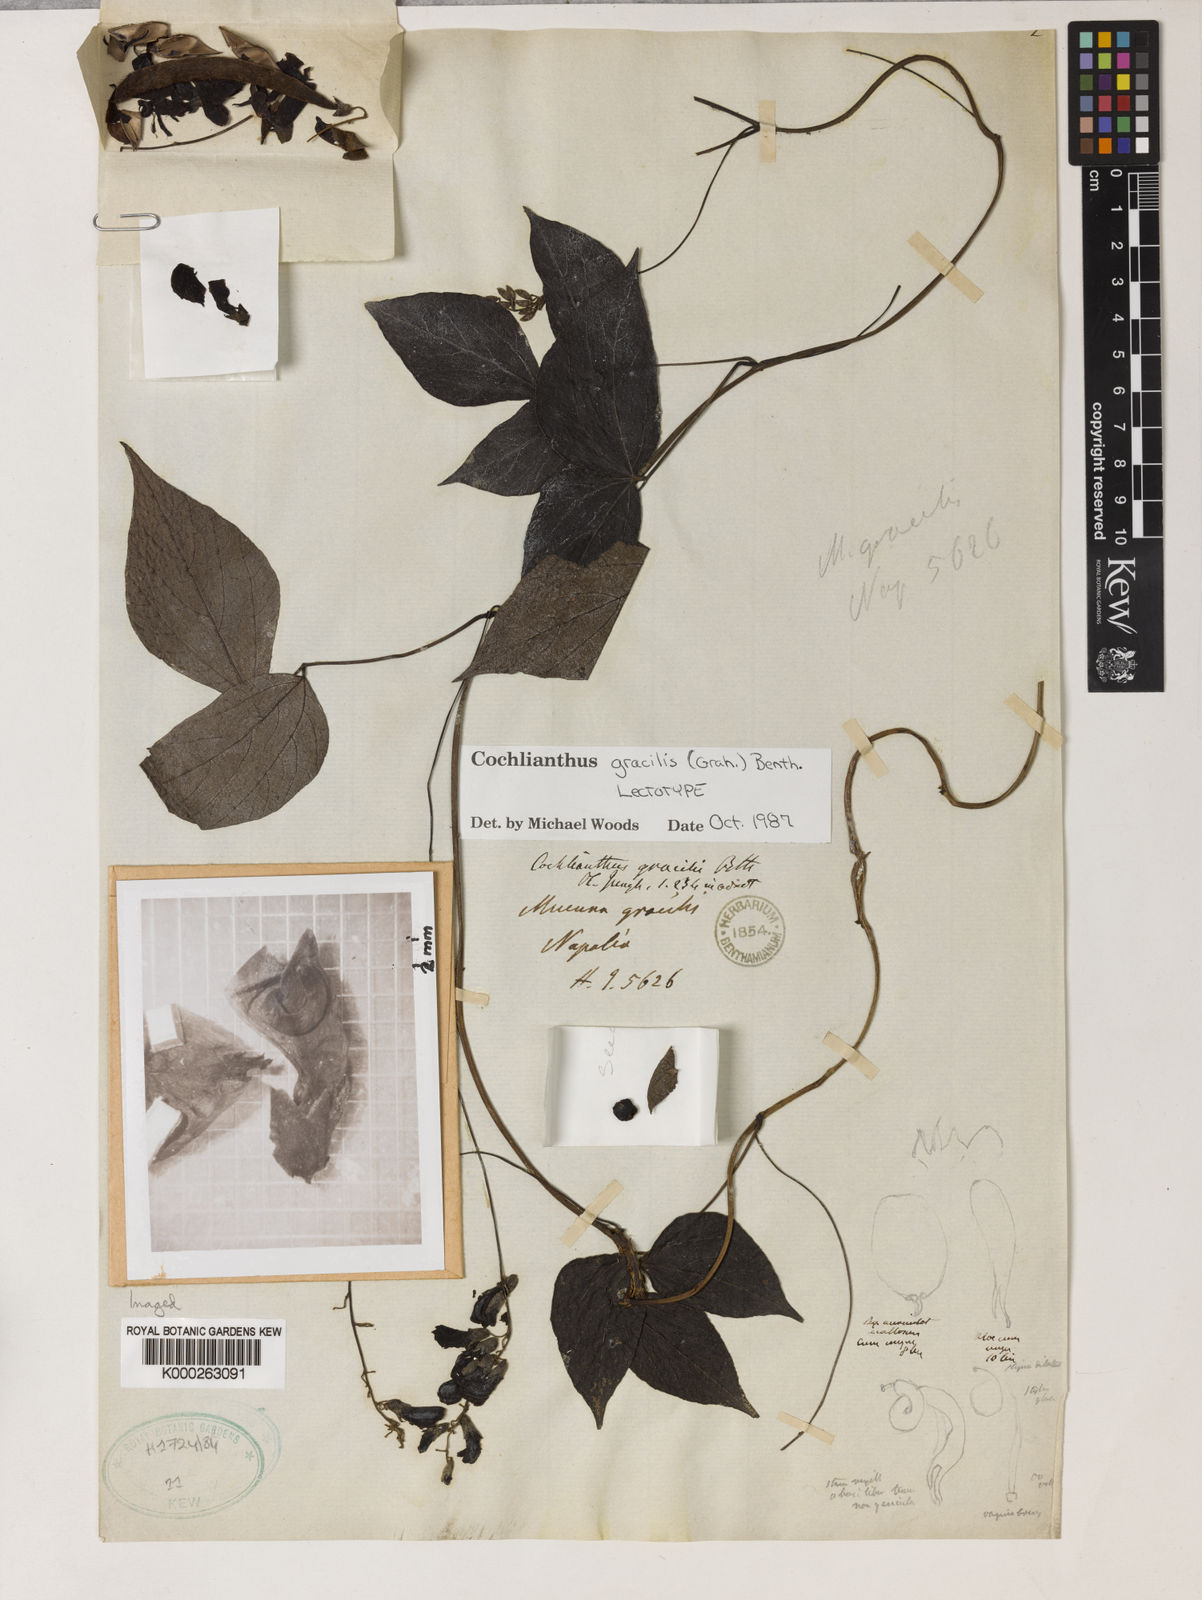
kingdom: Plantae
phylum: Tracheophyta
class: Magnoliopsida
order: Fabales
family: Fabaceae
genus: Cochlianthus
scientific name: Cochlianthus gracilis
